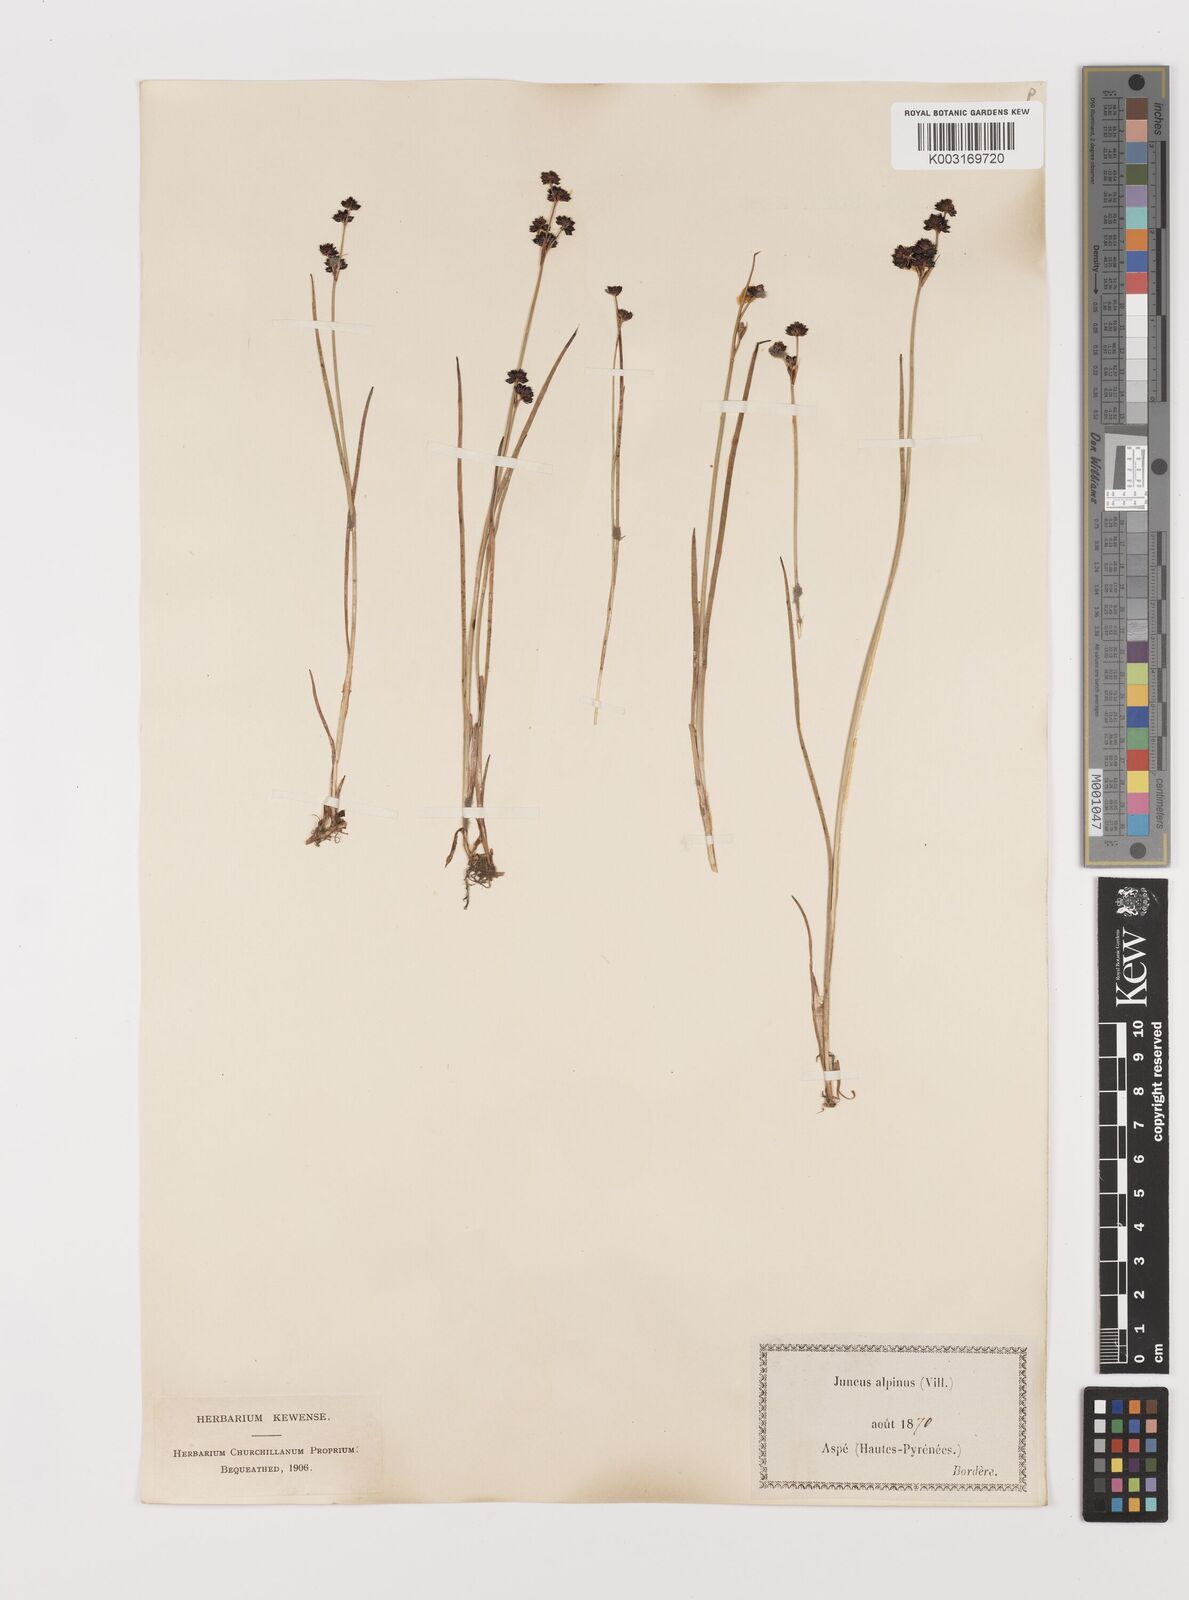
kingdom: Plantae
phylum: Tracheophyta
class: Liliopsida
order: Poales
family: Juncaceae
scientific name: Juncaceae
